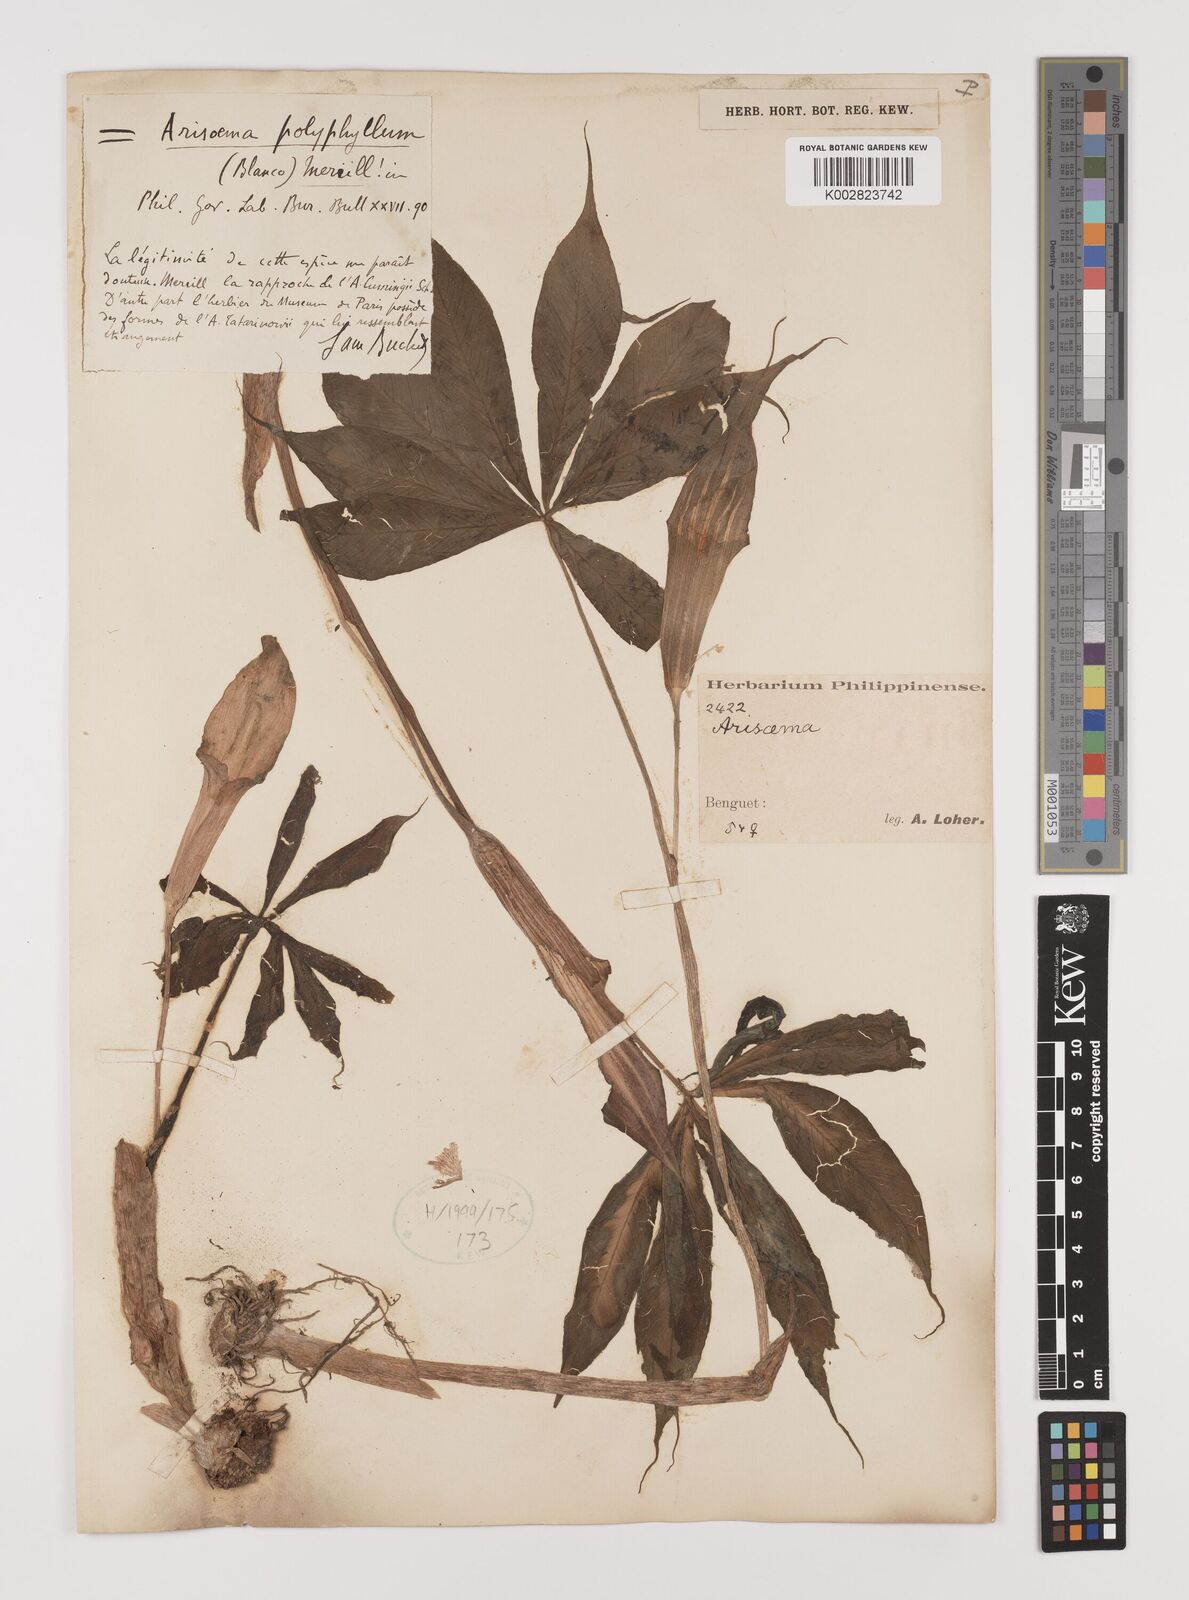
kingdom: Plantae
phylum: Tracheophyta
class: Liliopsida
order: Alismatales
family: Araceae
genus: Arisaema
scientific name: Arisaema polyphyllum
